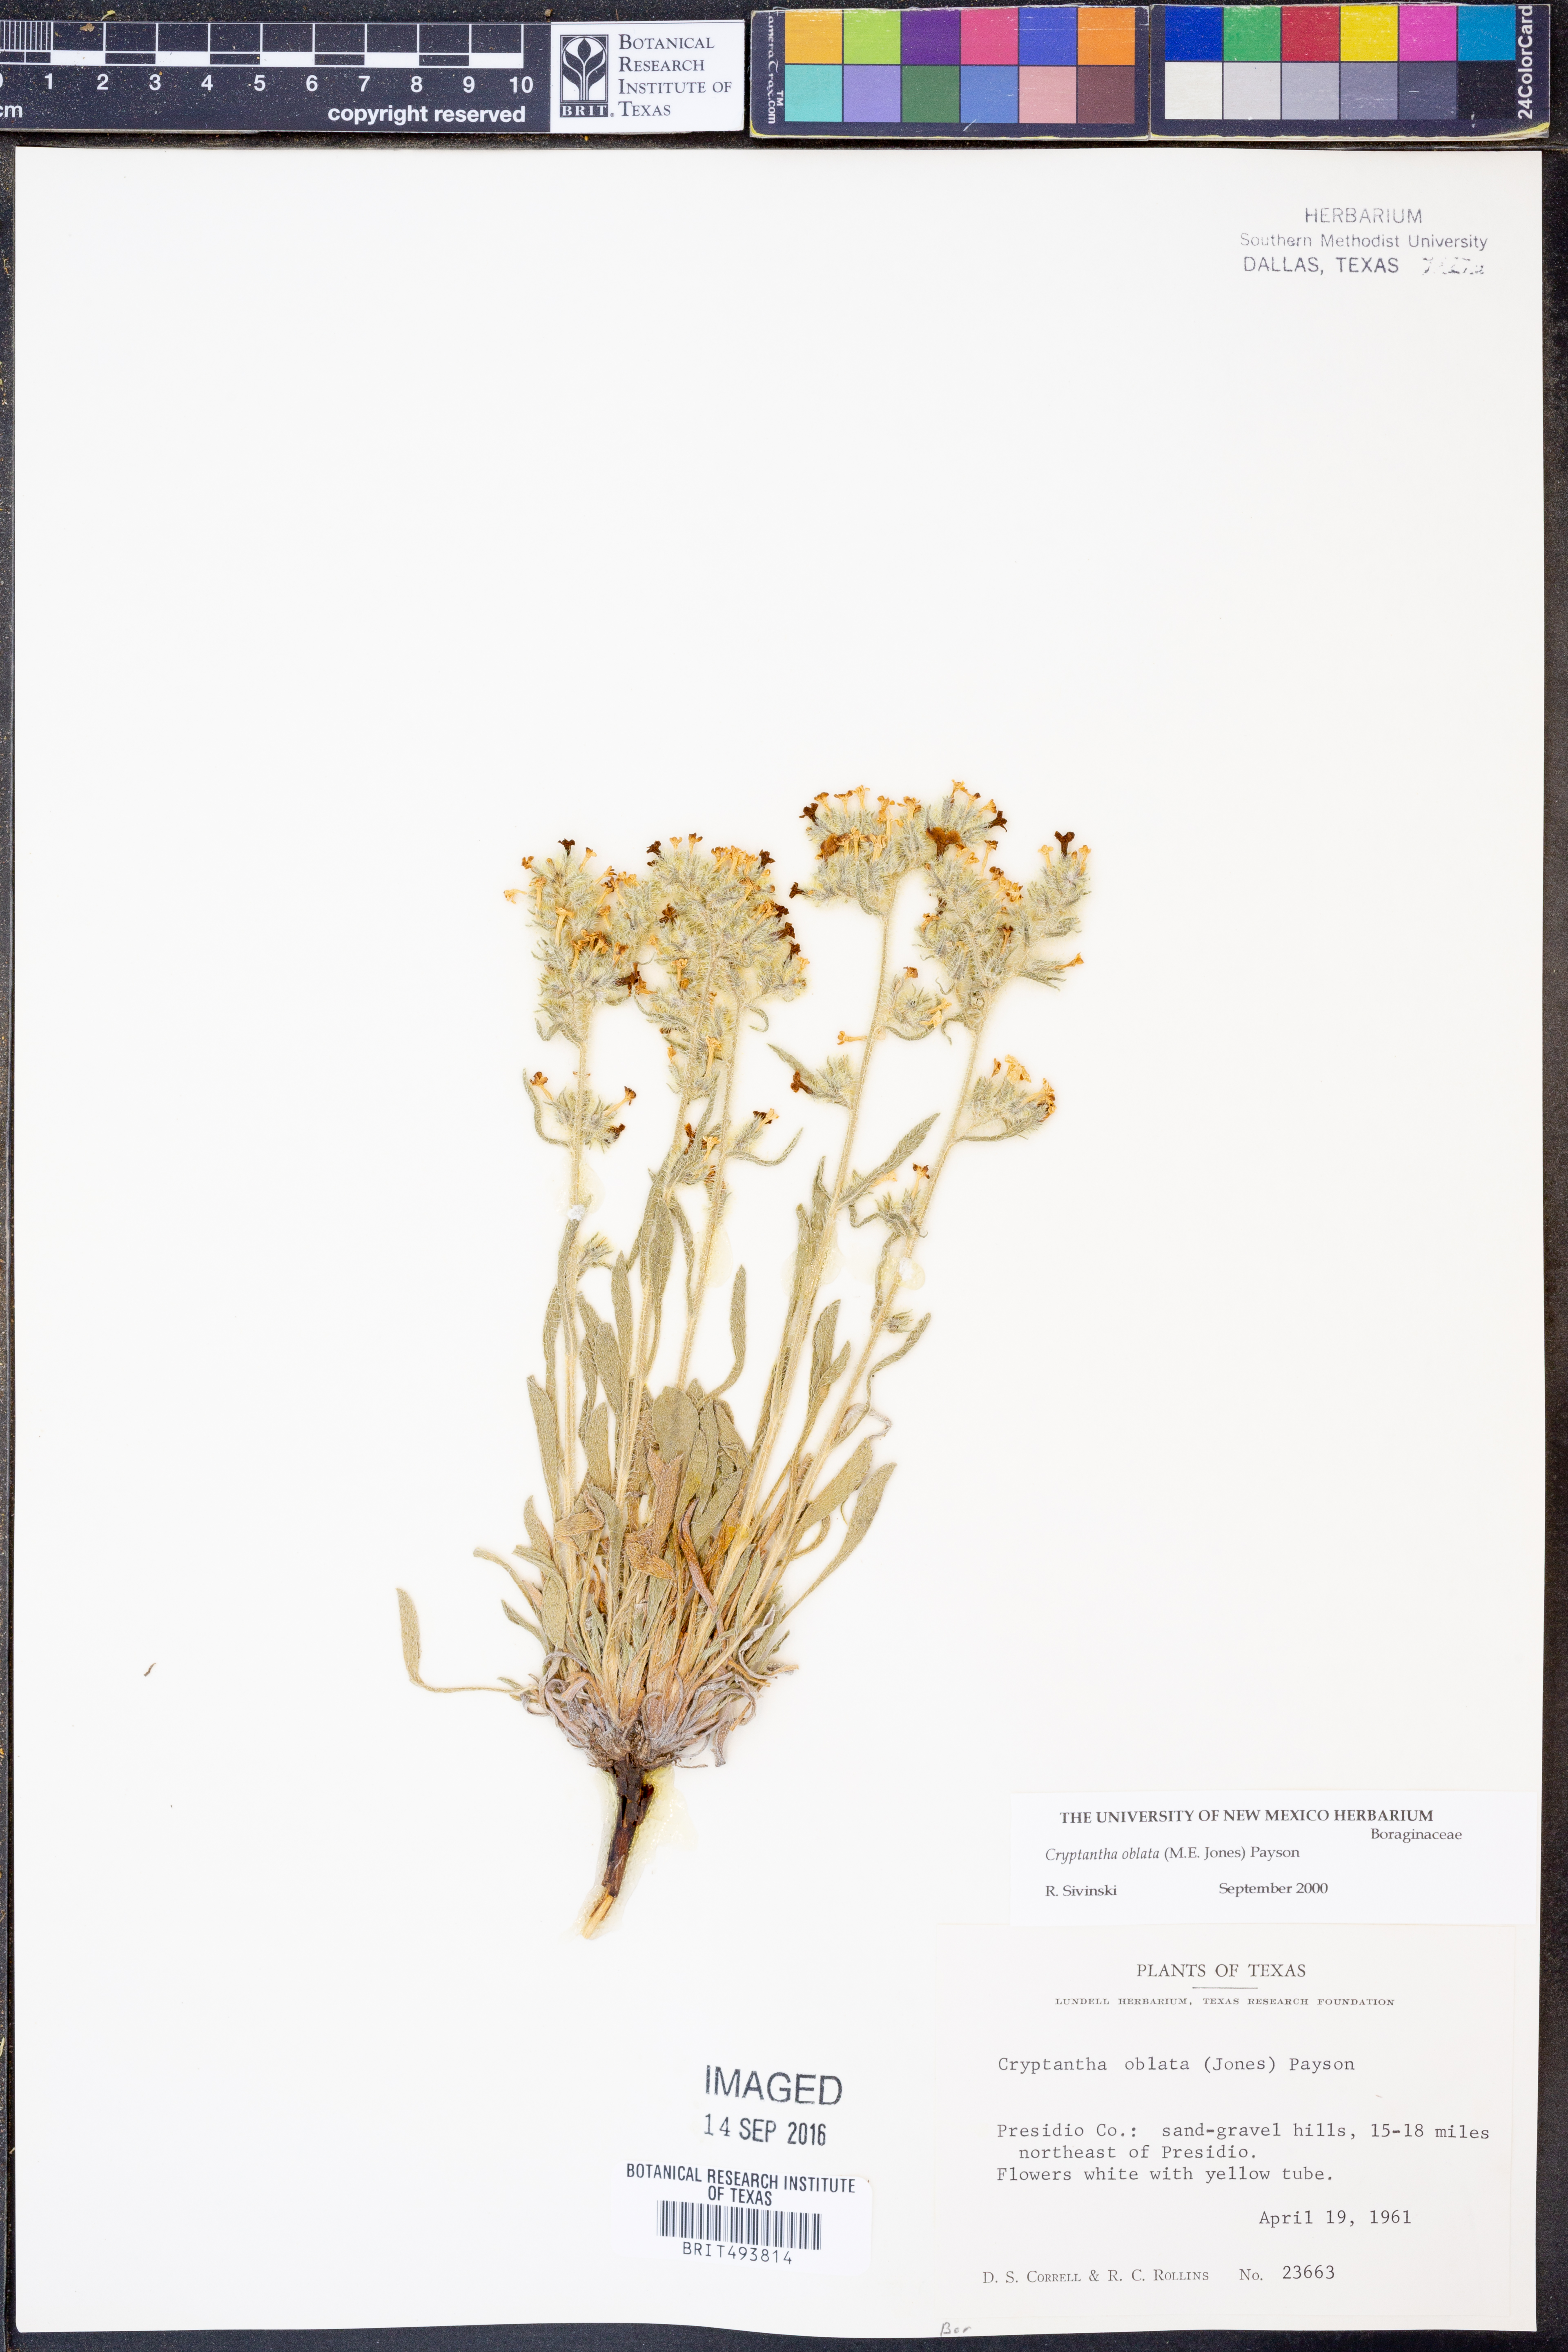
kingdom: Plantae
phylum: Tracheophyta
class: Magnoliopsida
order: Boraginales
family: Boraginaceae
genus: Oreocarya
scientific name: Oreocarya oblata
